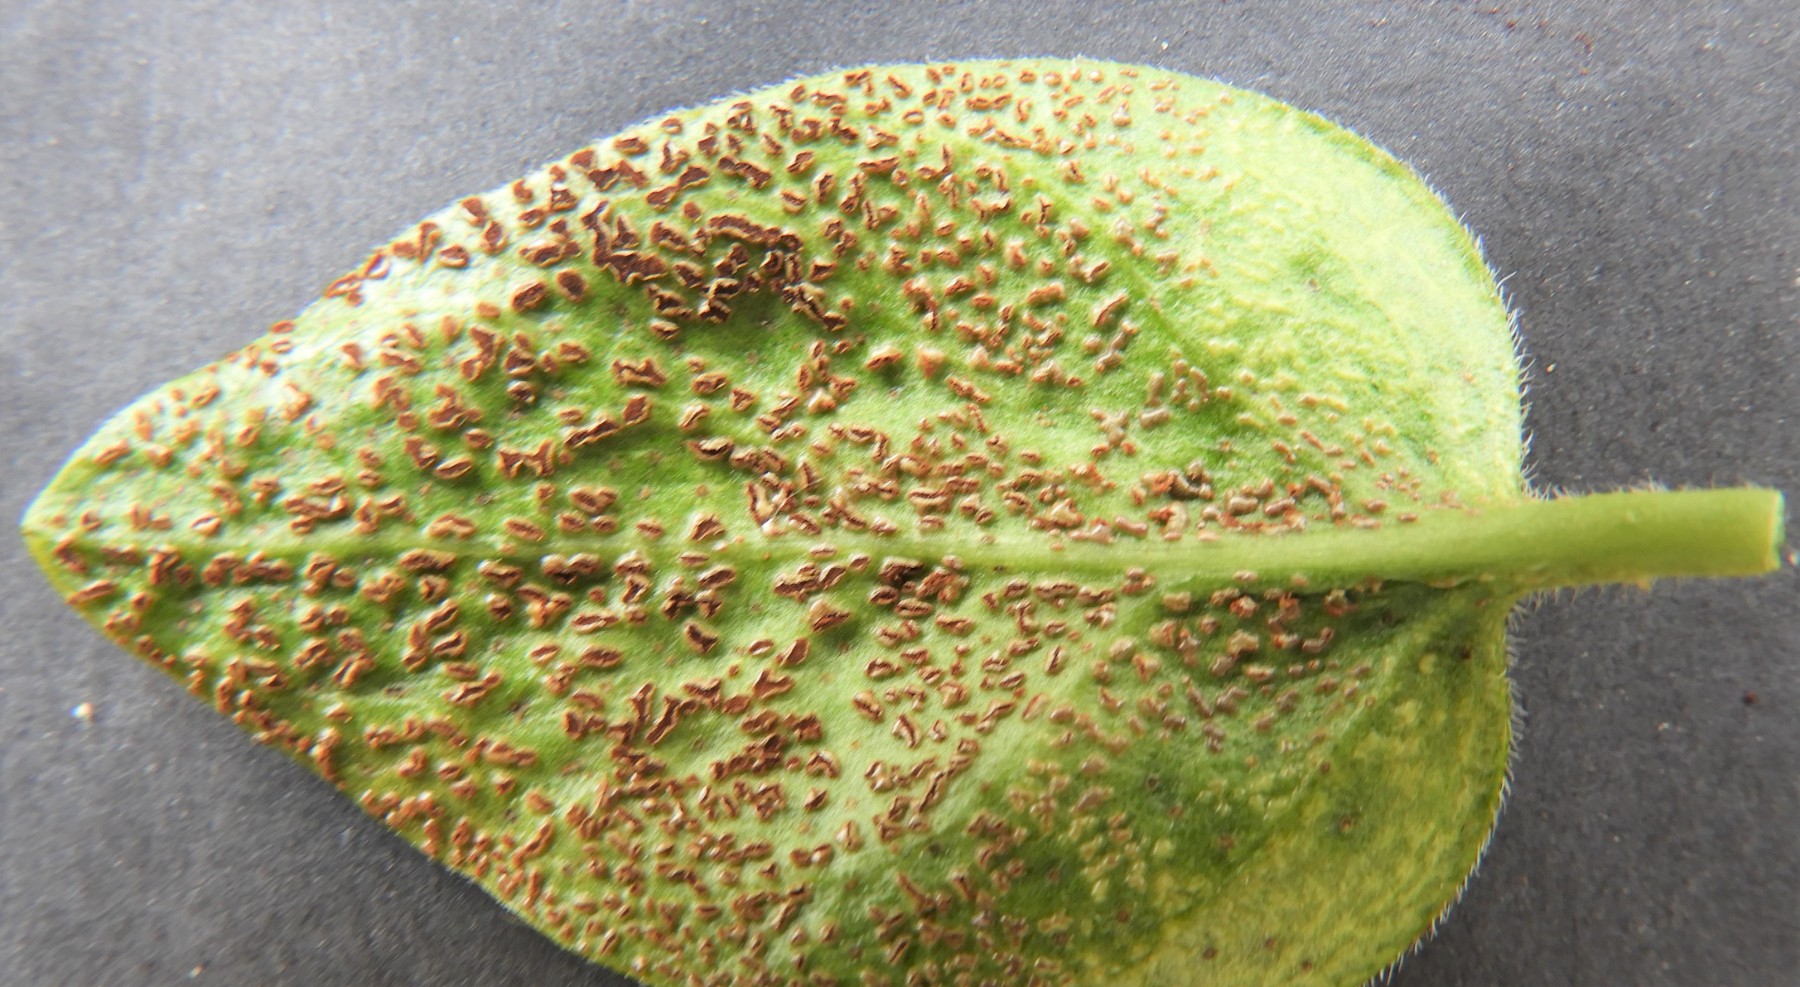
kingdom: Fungi
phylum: Basidiomycota
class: Pucciniomycetes
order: Pucciniales
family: Pucciniaceae
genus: Puccinia
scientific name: Puccinia vincae
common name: Periwinkle rust
